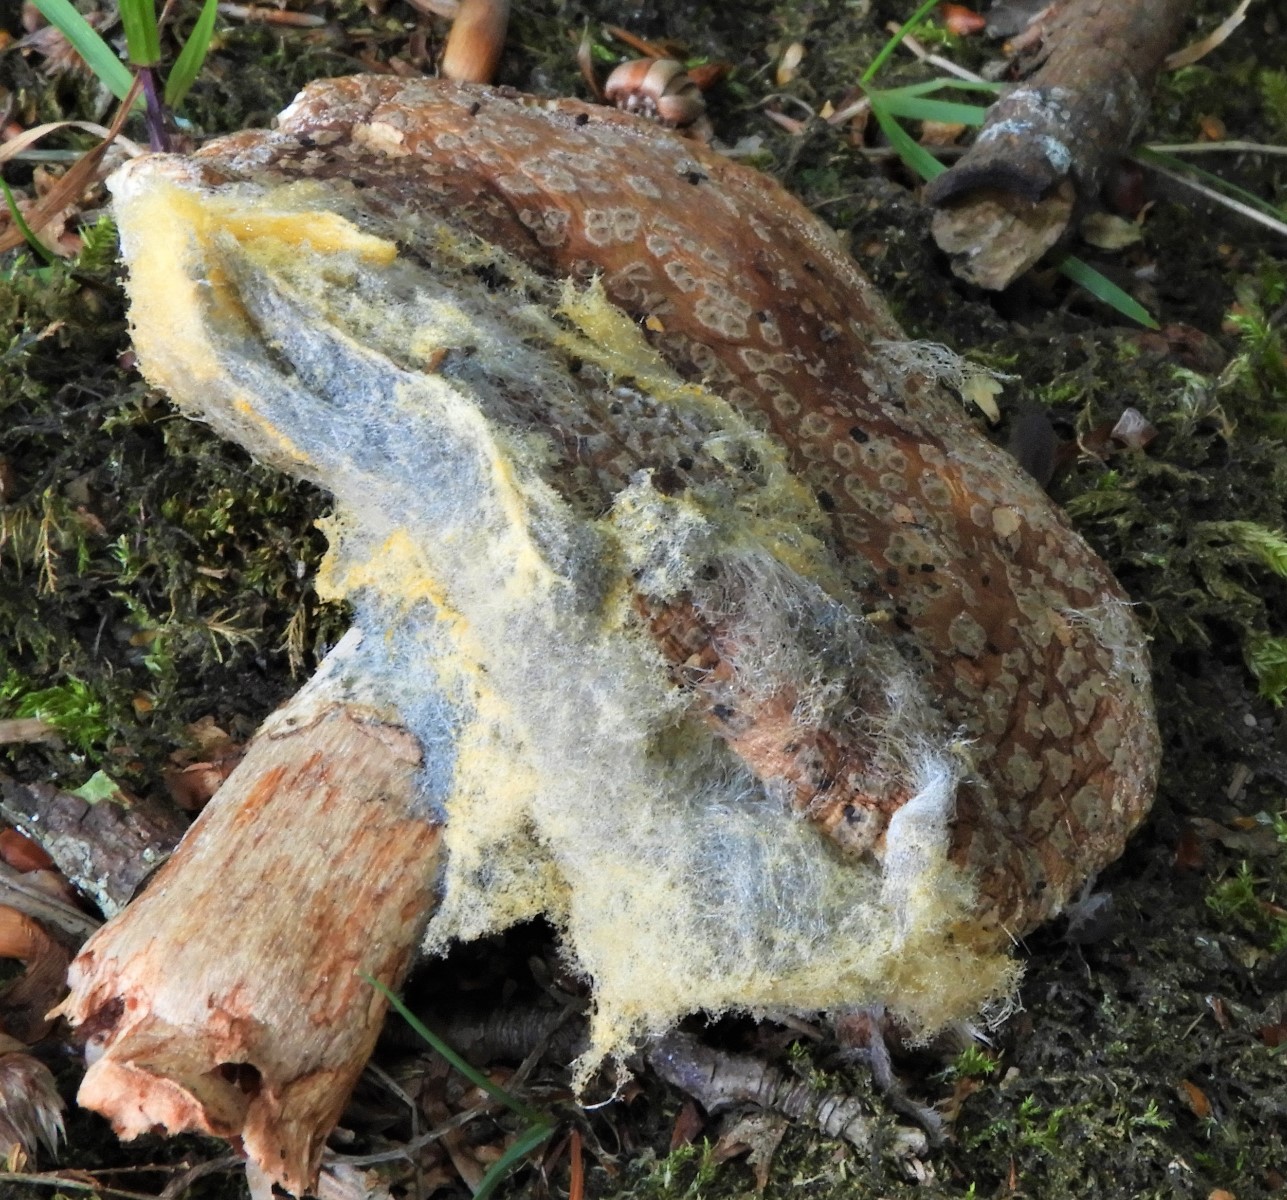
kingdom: Fungi
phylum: Mucoromycota
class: Mucoromycetes
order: Mucorales
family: Rhizopodaceae
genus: Syzygites
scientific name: Syzygites megalocarpus
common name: nissenål
